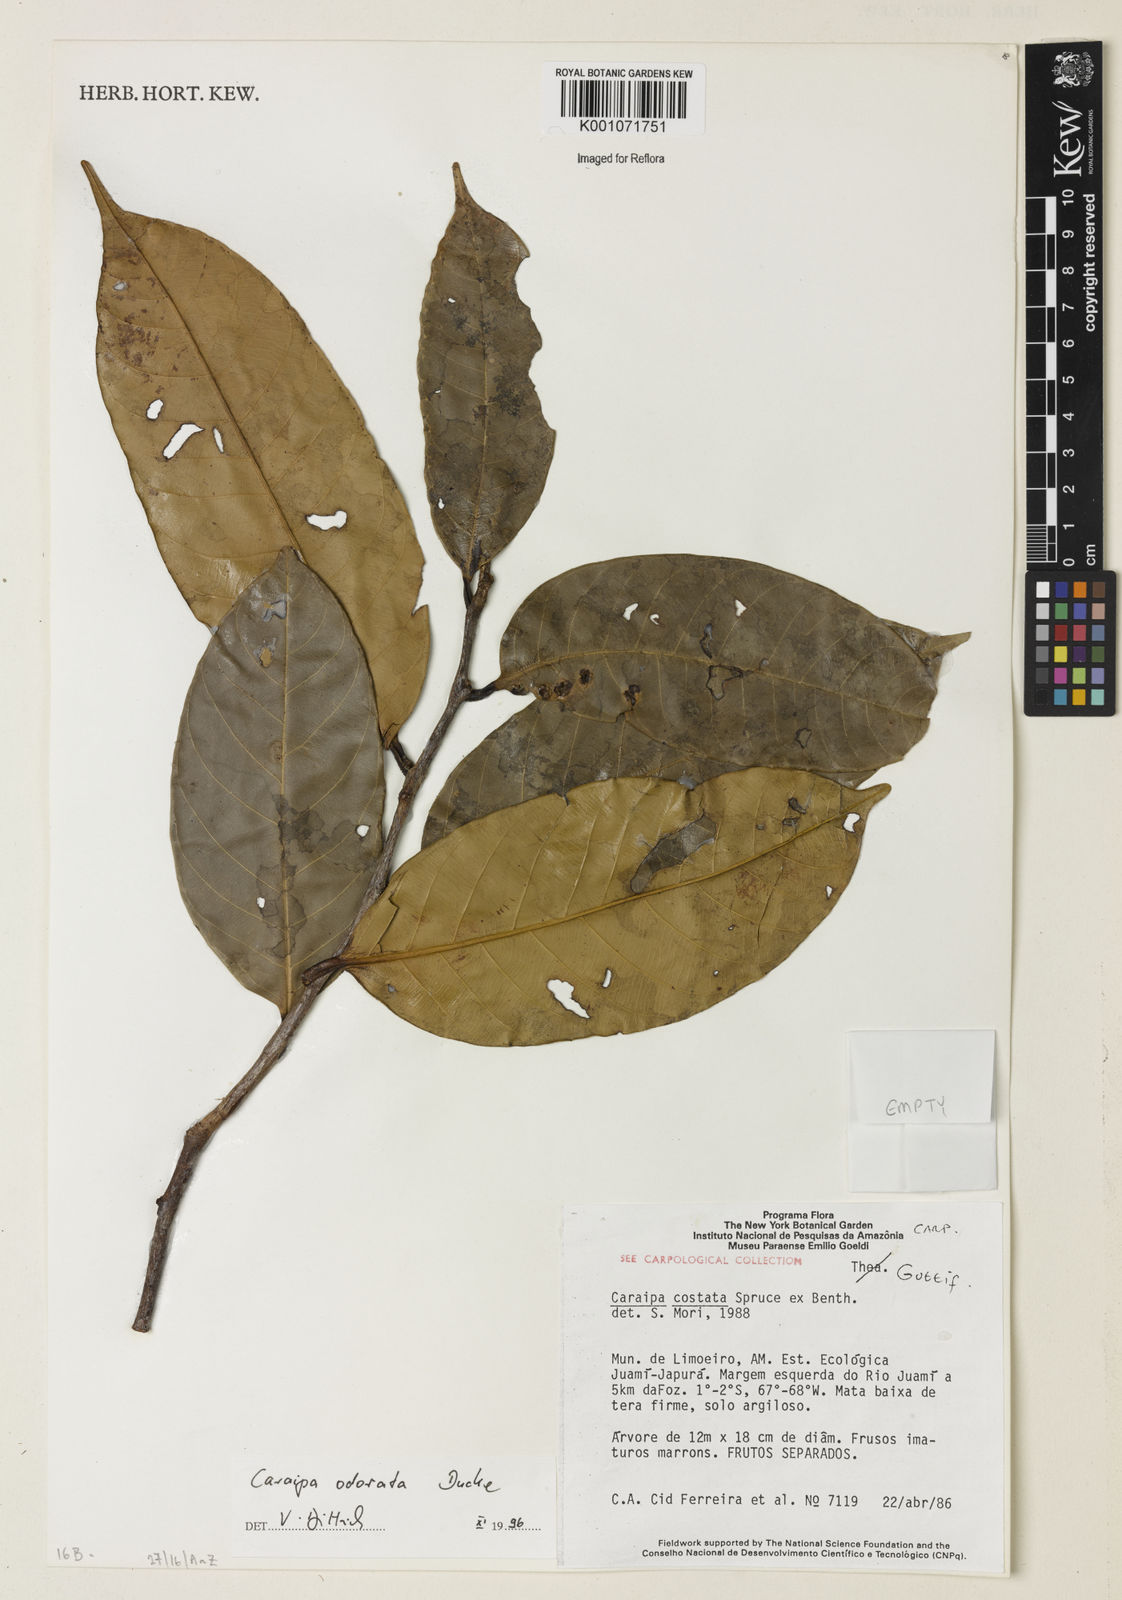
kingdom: Plantae
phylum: Tracheophyta
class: Magnoliopsida
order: Malpighiales
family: Calophyllaceae
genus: Caraipa
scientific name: Caraipa odorata
